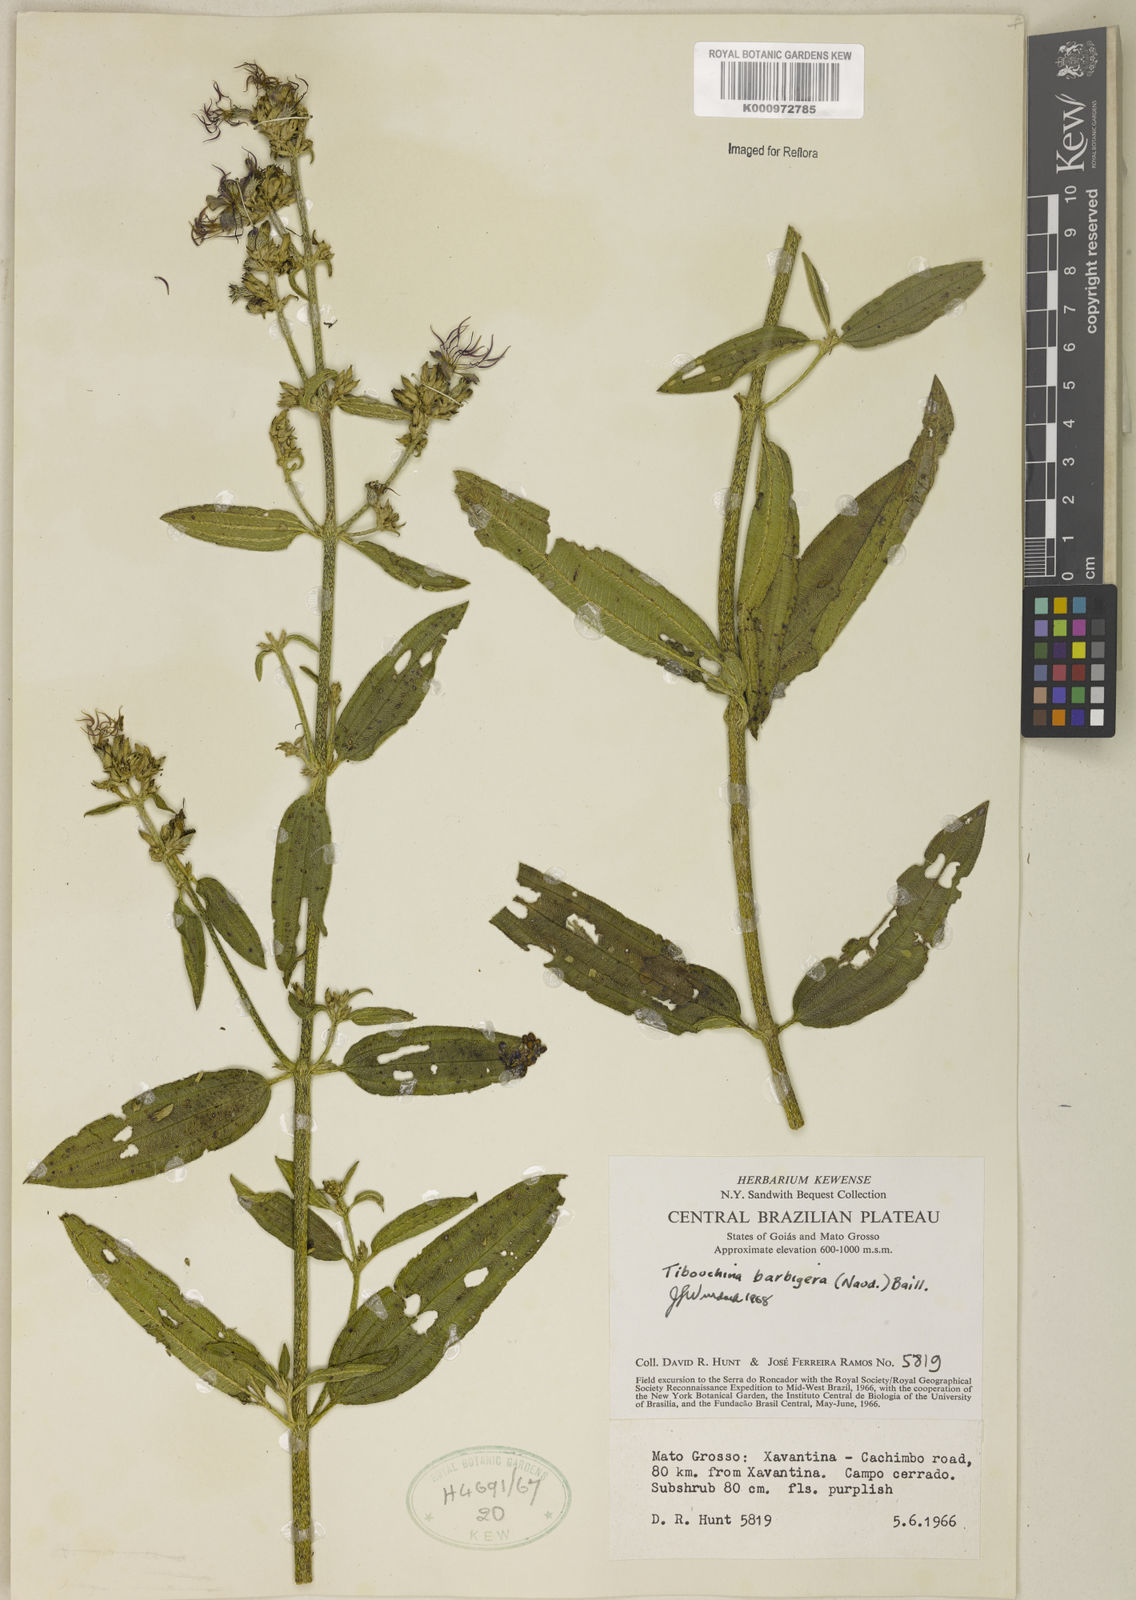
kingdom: Plantae
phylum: Tracheophyta
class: Magnoliopsida
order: Myrtales
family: Melastomataceae
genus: Pleroma
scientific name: Pleroma barbigerum
